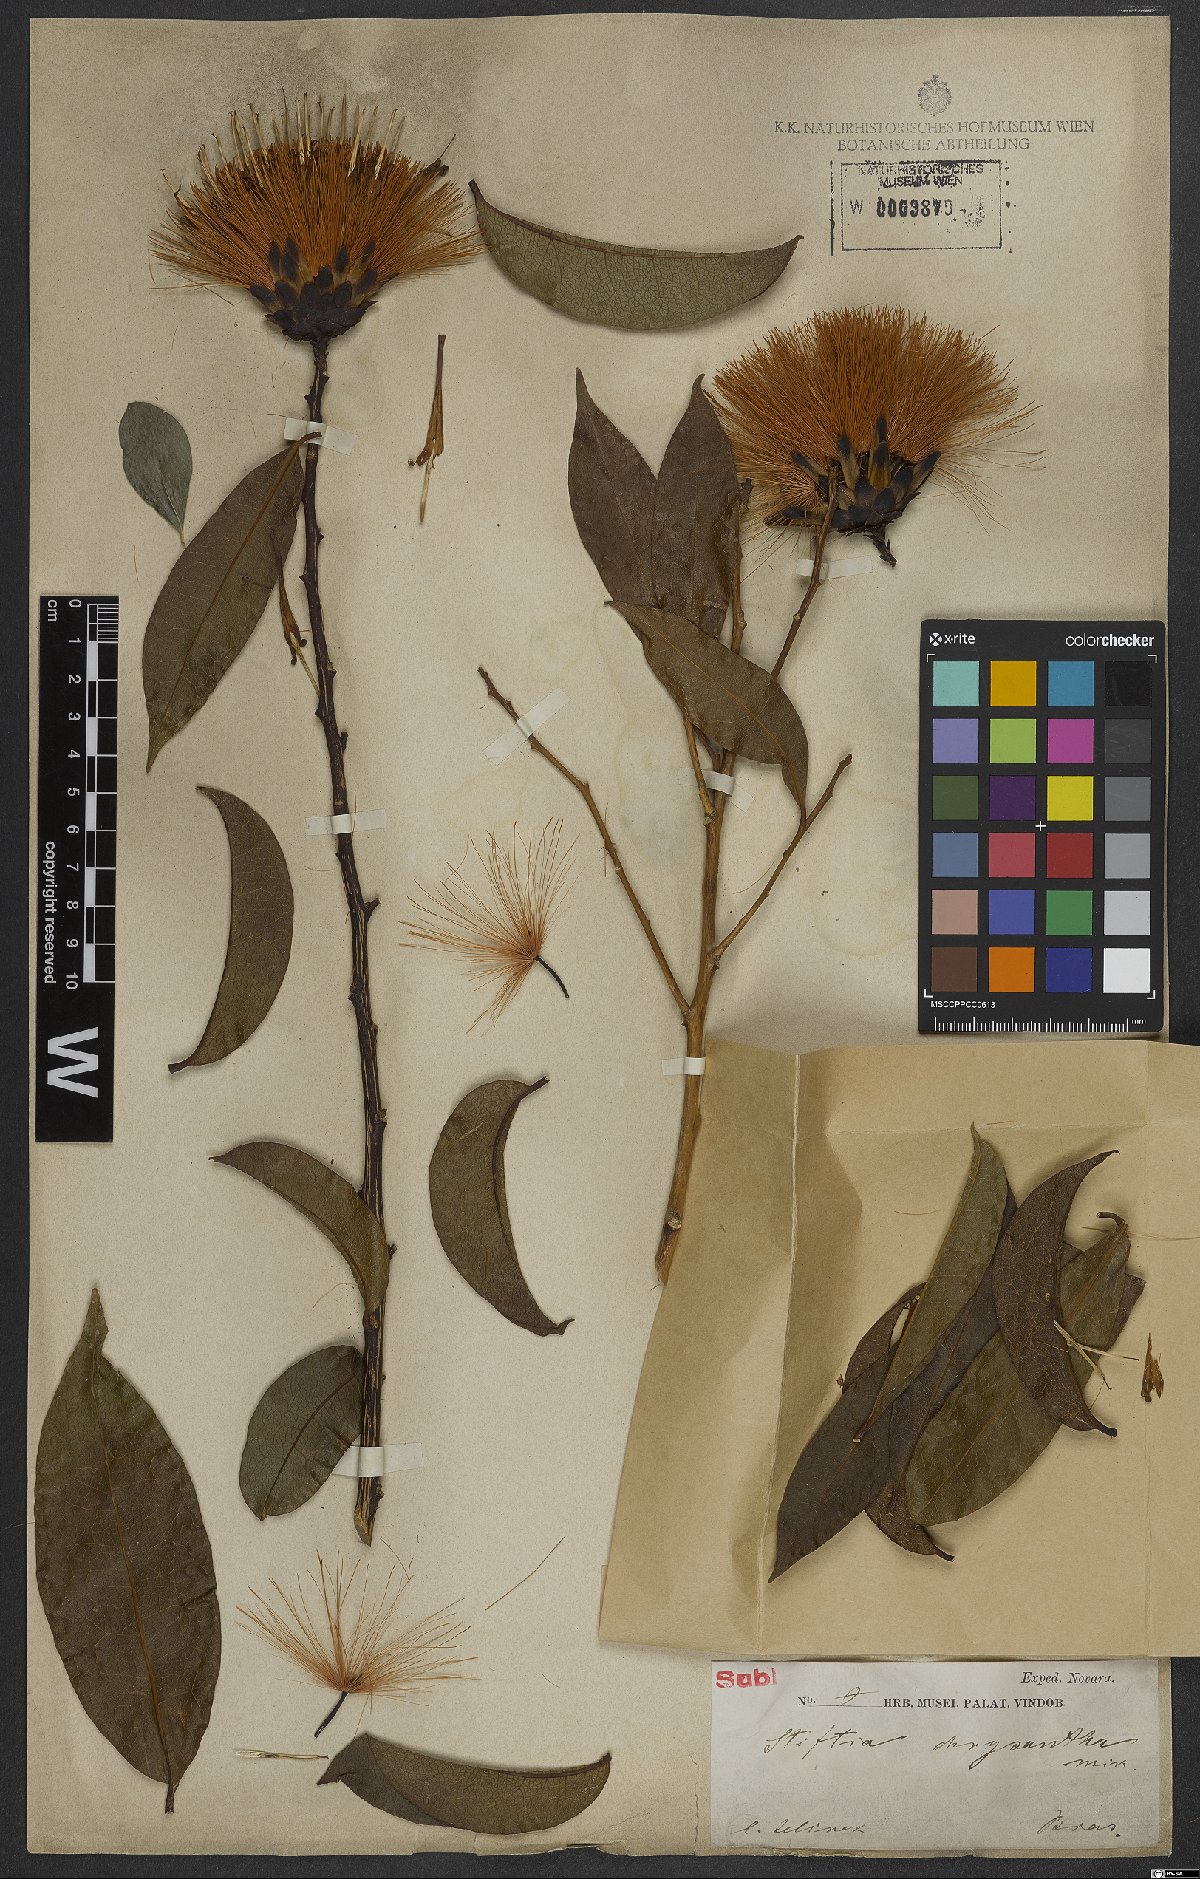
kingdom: Plantae
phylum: Tracheophyta
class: Magnoliopsida
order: Asterales
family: Asteraceae
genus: Stifftia
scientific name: Stifftia chrysantha
